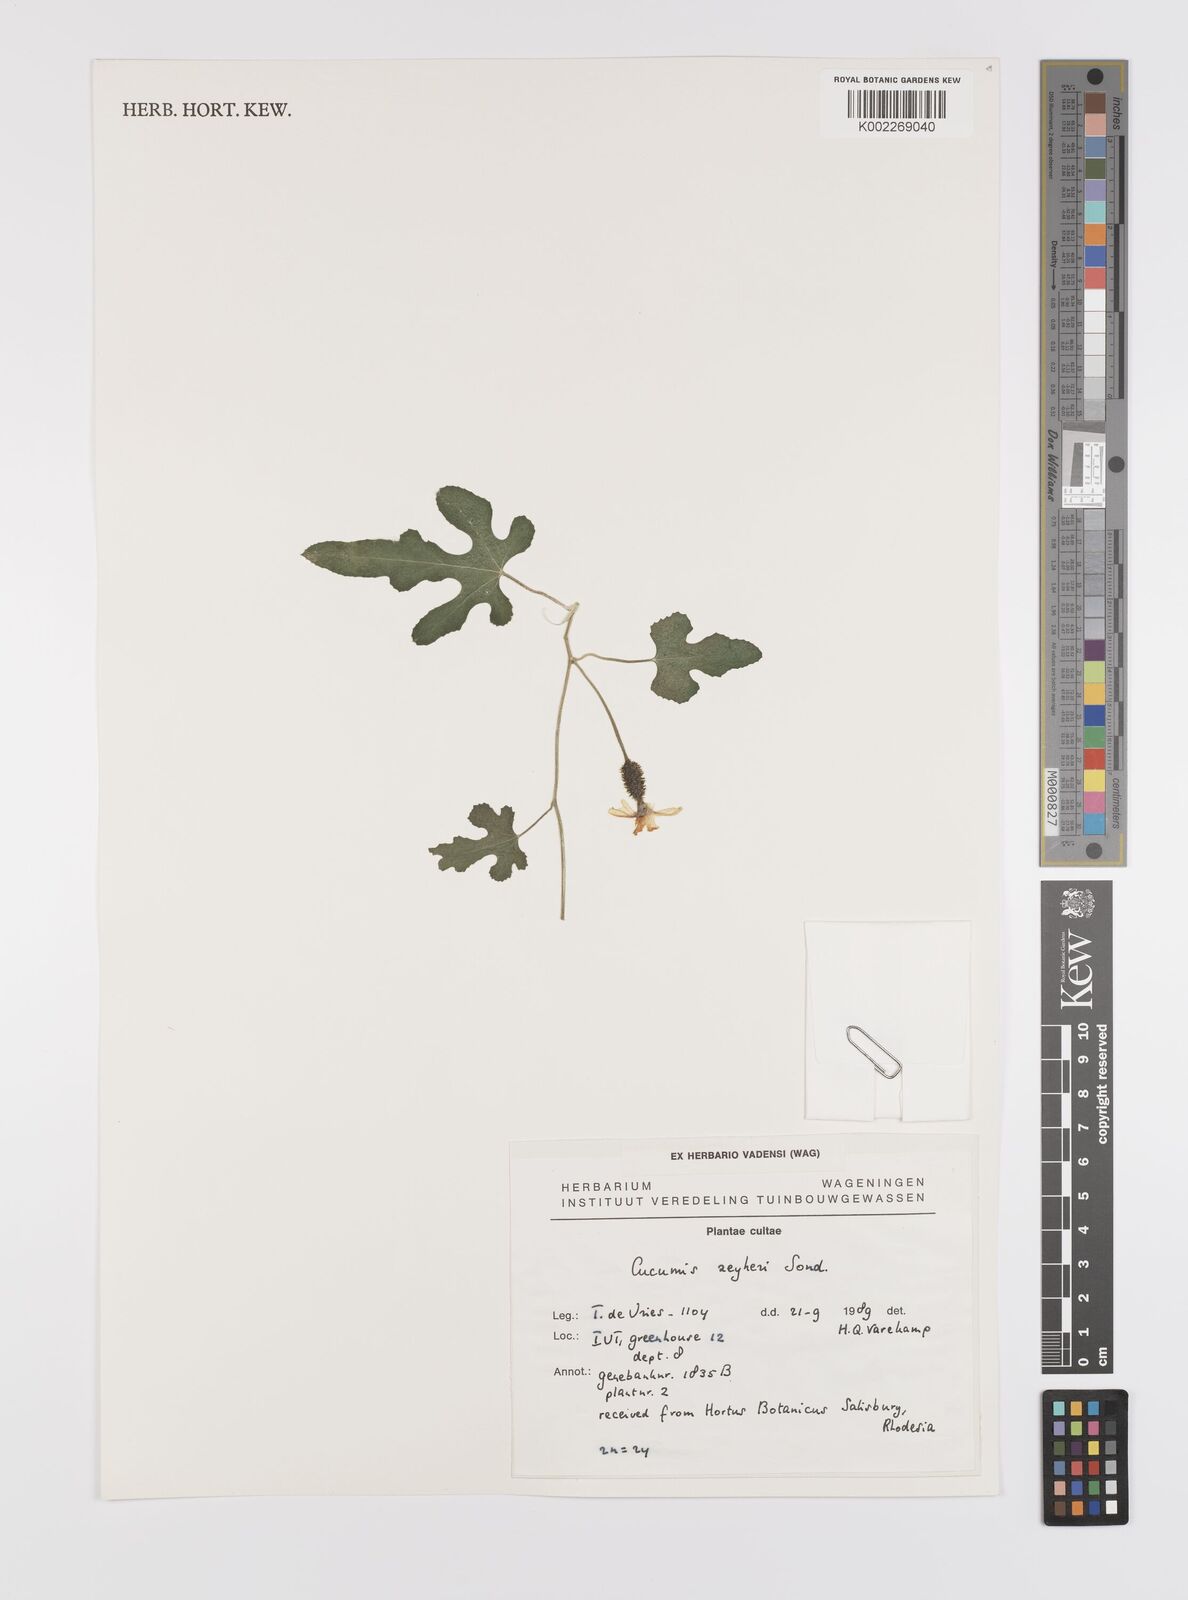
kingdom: Plantae
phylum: Tracheophyta
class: Magnoliopsida
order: Cucurbitales
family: Cucurbitaceae
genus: Cucumis
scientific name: Cucumis sativus
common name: Cucumber
